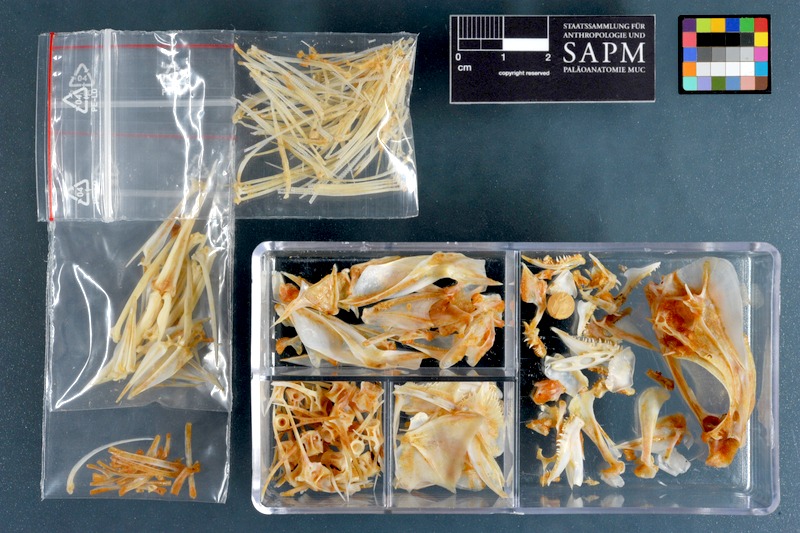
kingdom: Animalia
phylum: Chordata
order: Perciformes
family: Lutjanidae
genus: Lutjanus
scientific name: Lutjanus quinquelineatus
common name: Five-lined snapper
